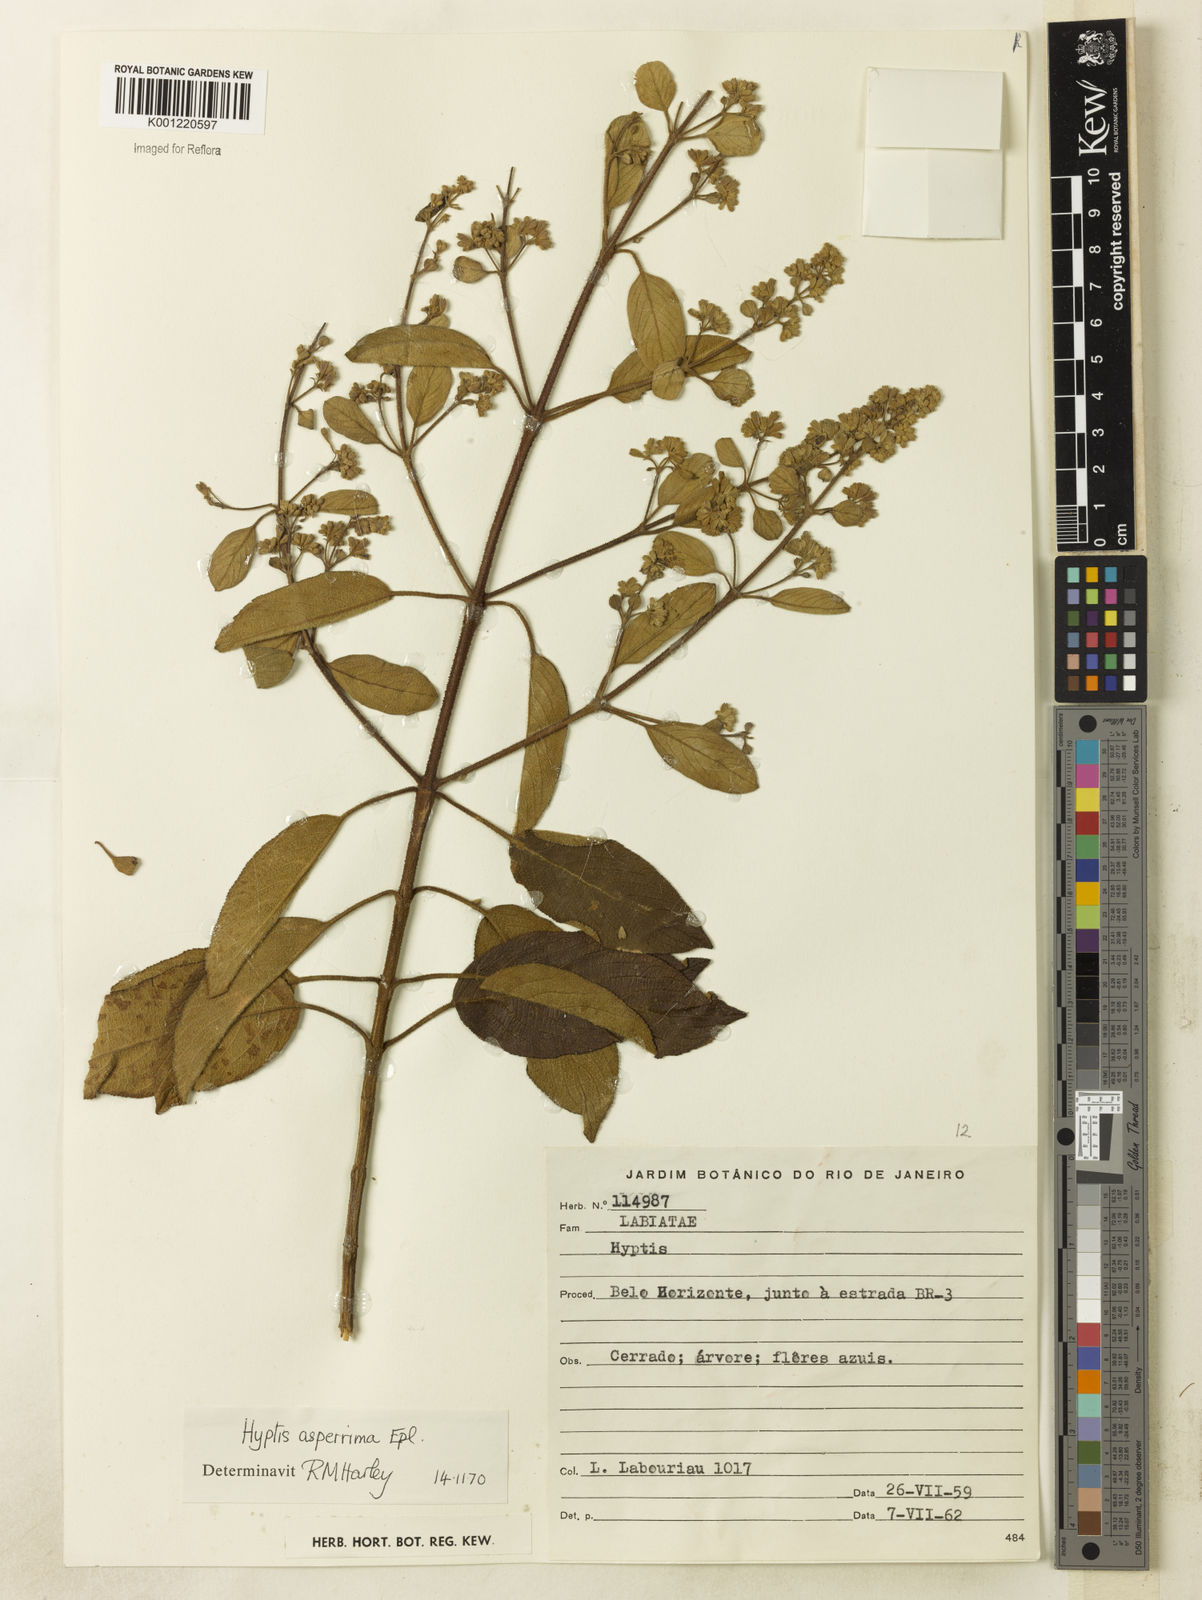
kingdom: Plantae
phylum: Tracheophyta
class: Magnoliopsida
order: Lamiales
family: Lamiaceae
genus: Hyptidendron
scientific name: Hyptidendron asperrimum
